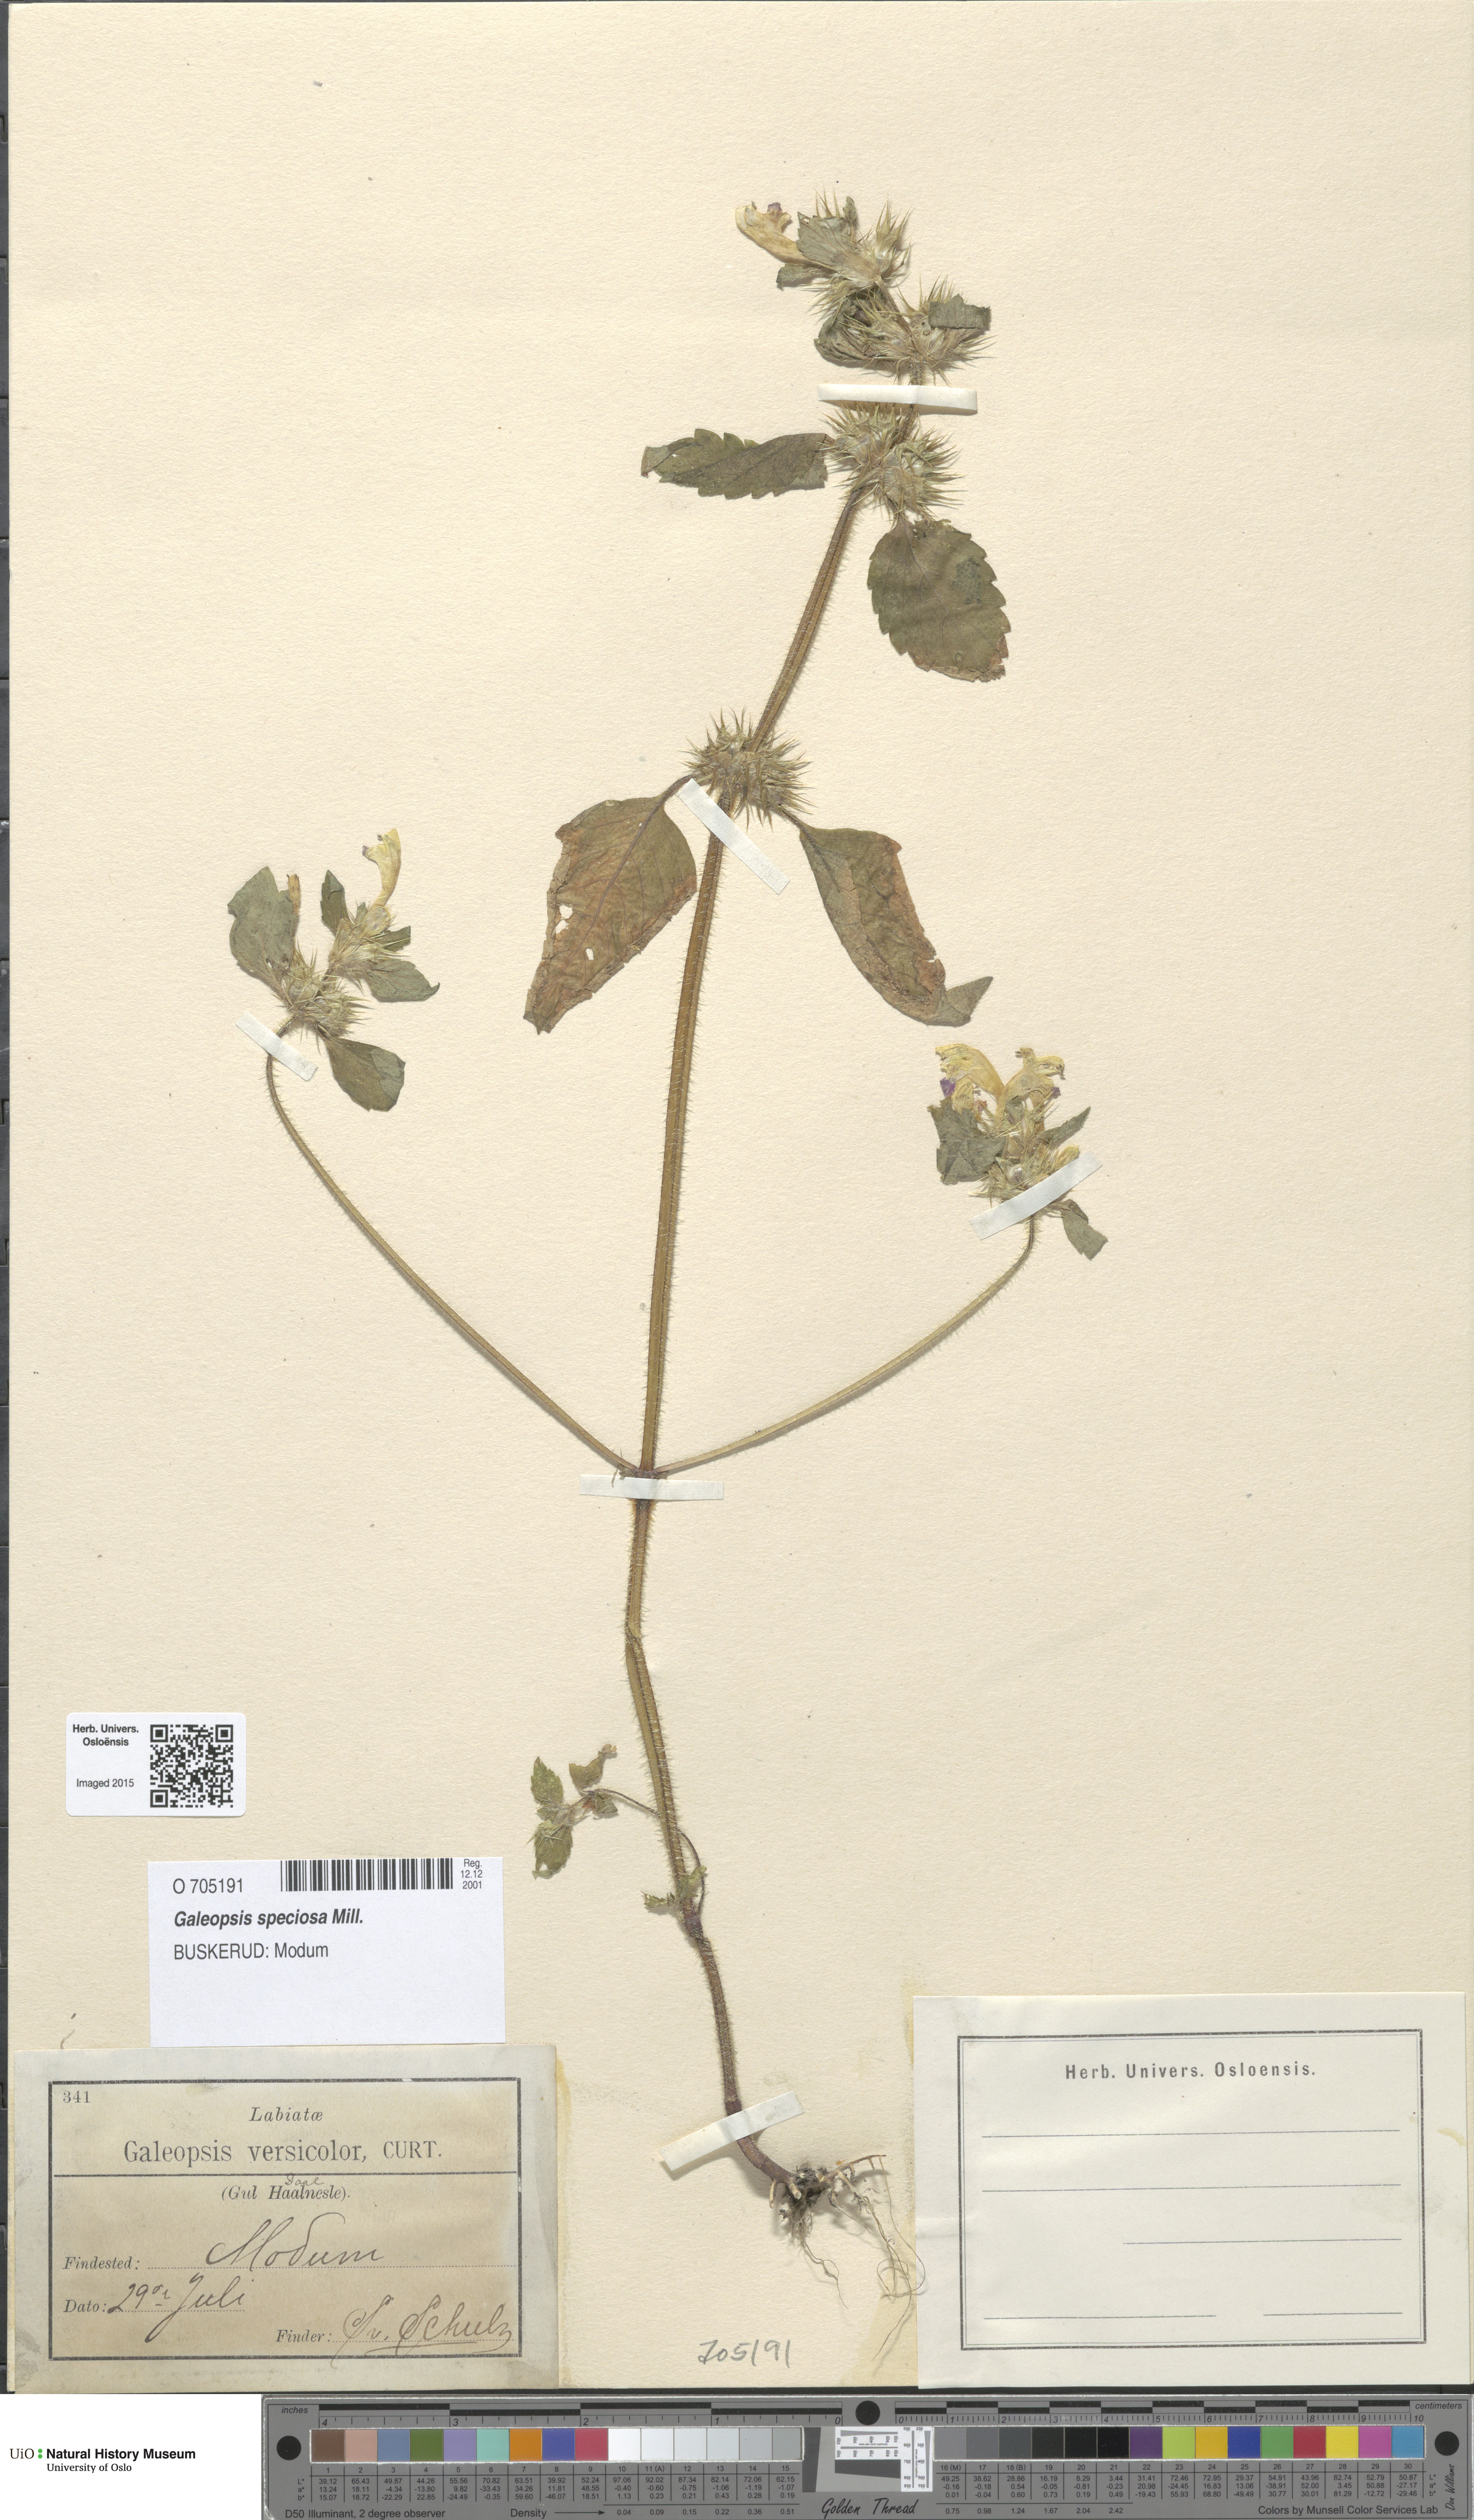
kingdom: Plantae
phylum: Tracheophyta
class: Magnoliopsida
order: Lamiales
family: Lamiaceae
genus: Galeopsis
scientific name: Galeopsis speciosa
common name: Large-flowered hemp-nettle
